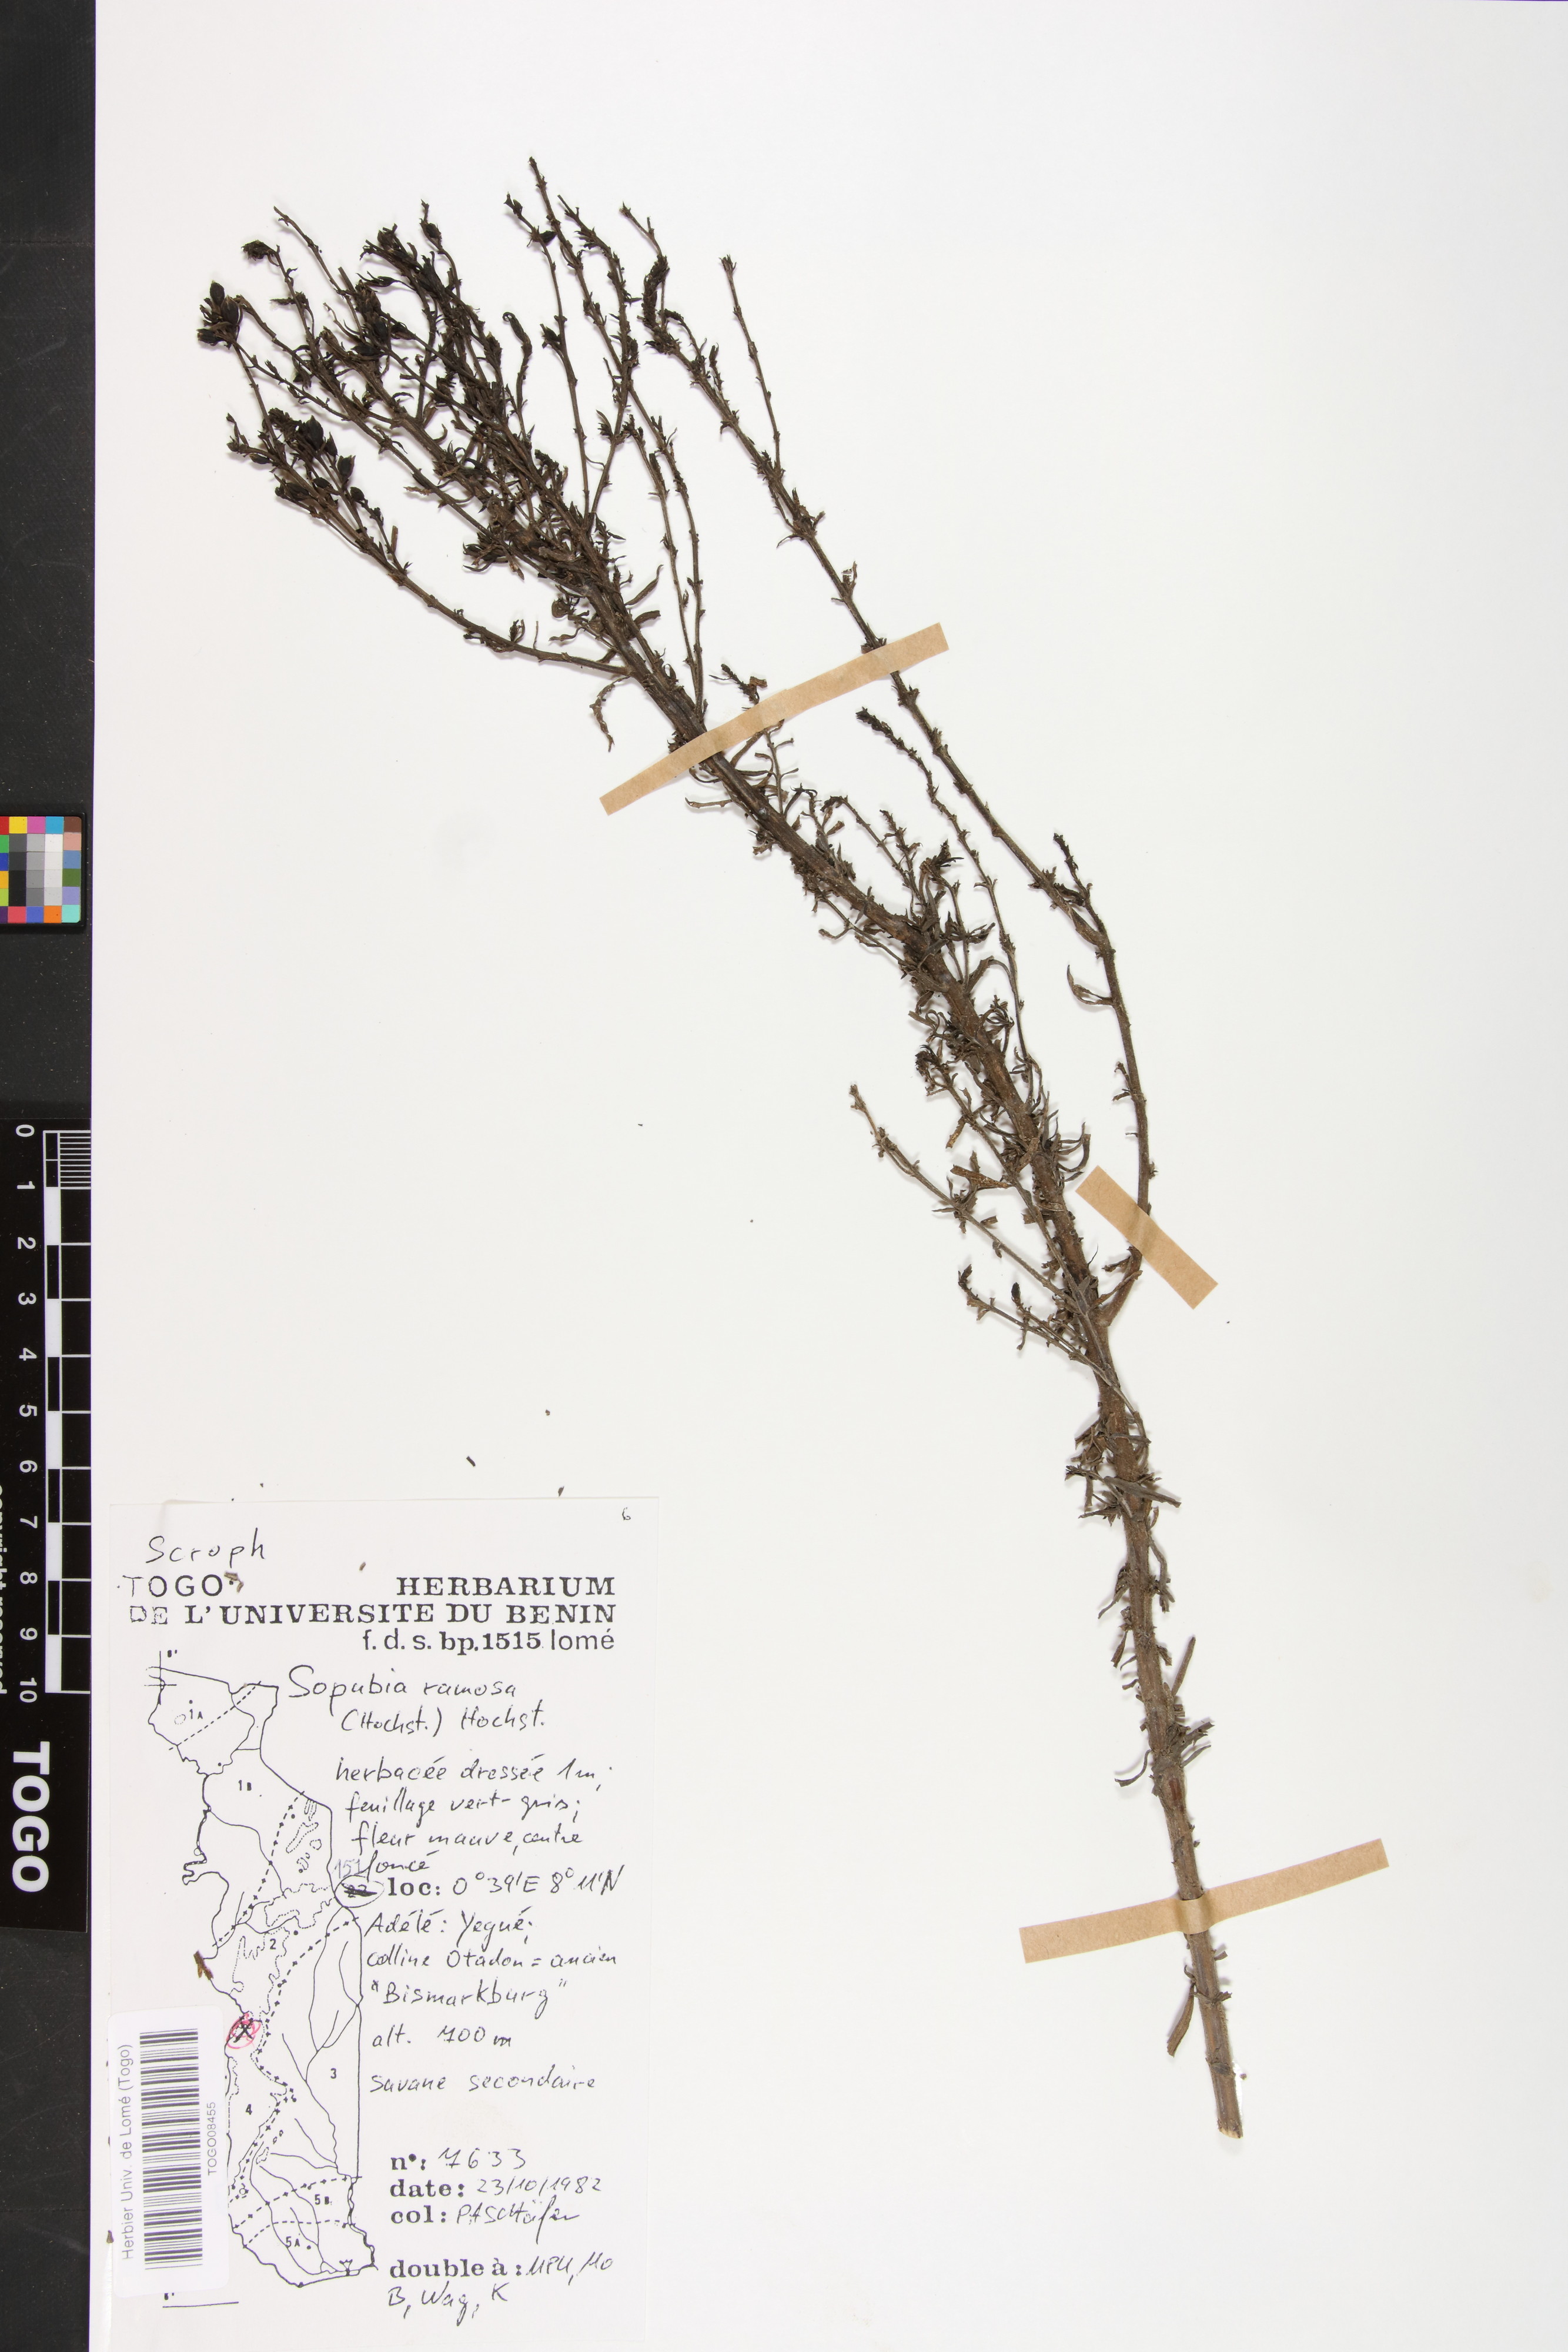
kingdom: Plantae
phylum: Tracheophyta
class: Magnoliopsida
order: Lamiales
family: Orobanchaceae
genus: Sopubia
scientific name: Sopubia ramosa
